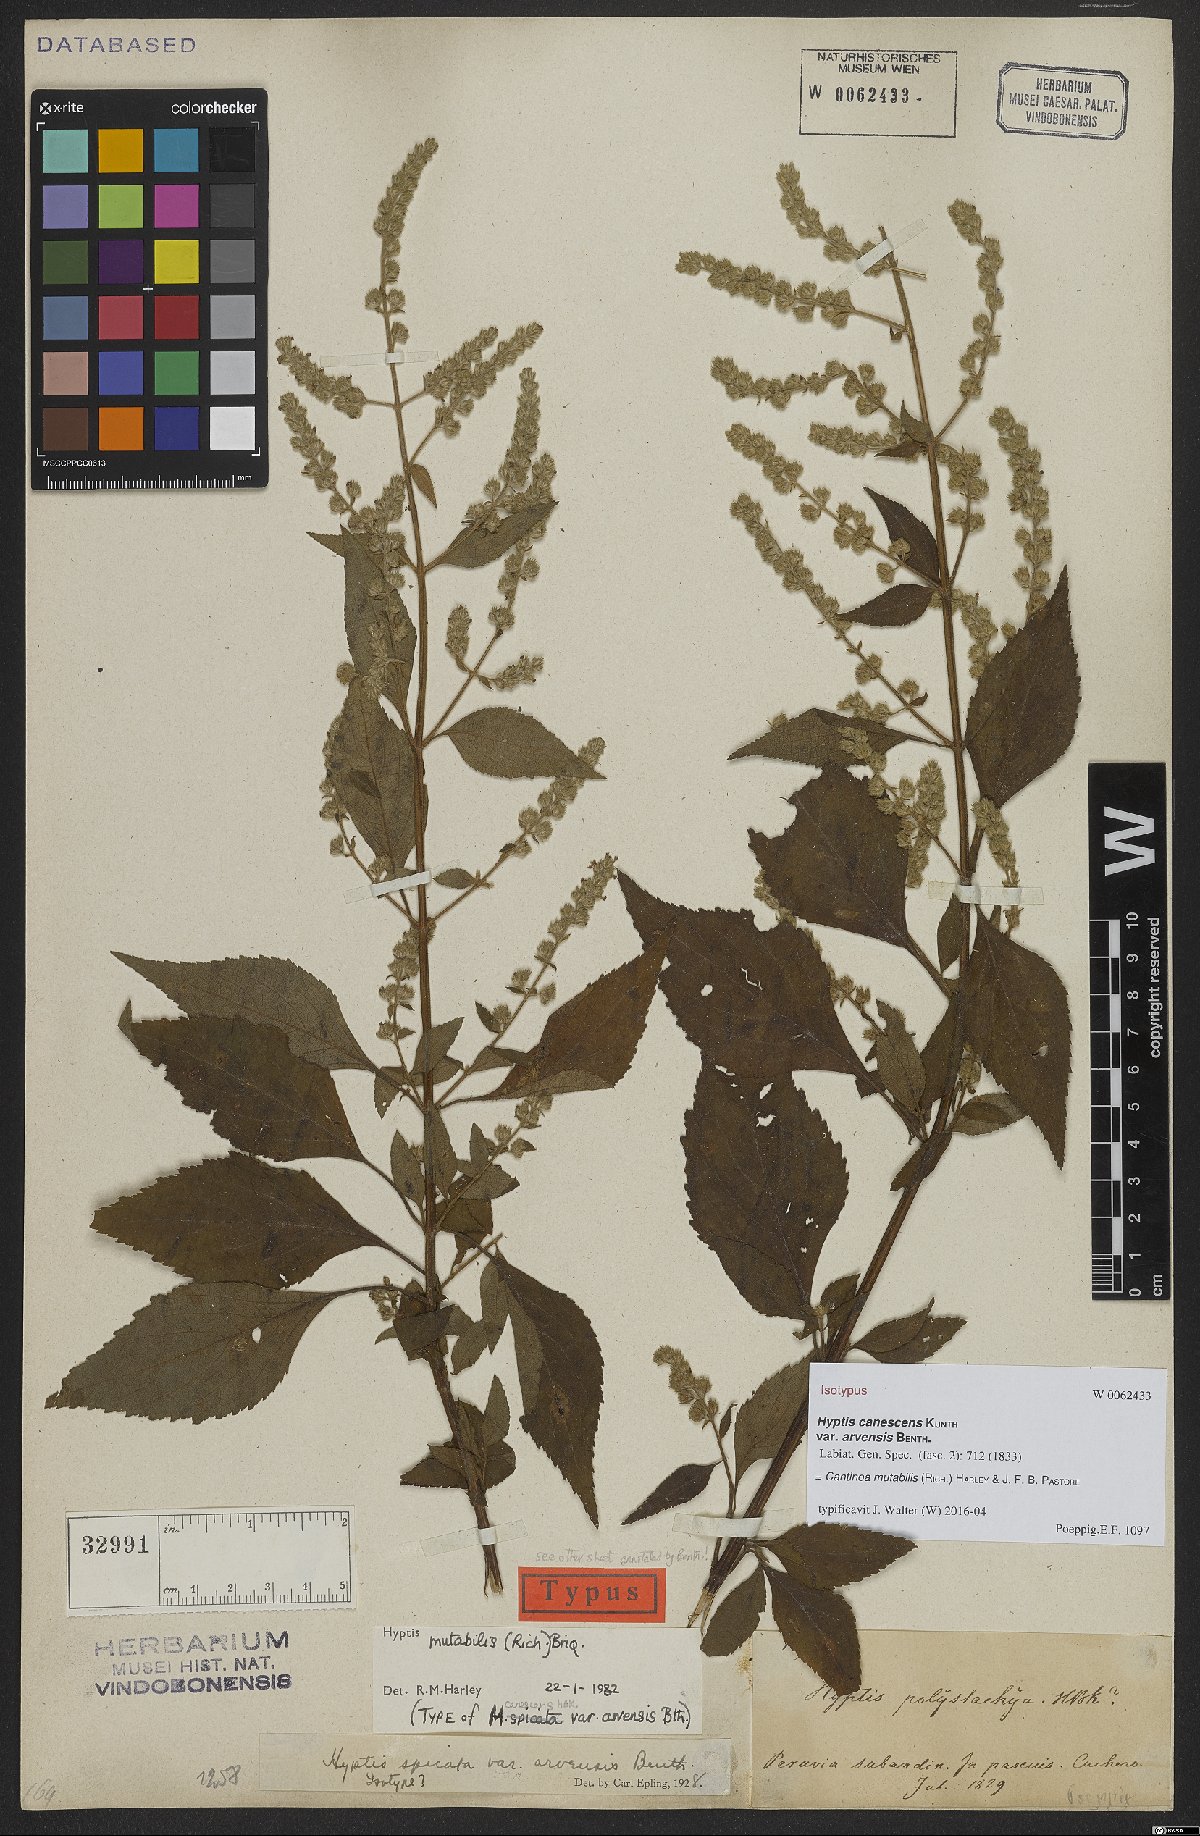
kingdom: Plantae
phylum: Tracheophyta
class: Magnoliopsida
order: Lamiales
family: Lamiaceae
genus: Cantinoa
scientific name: Cantinoa mutabilis
